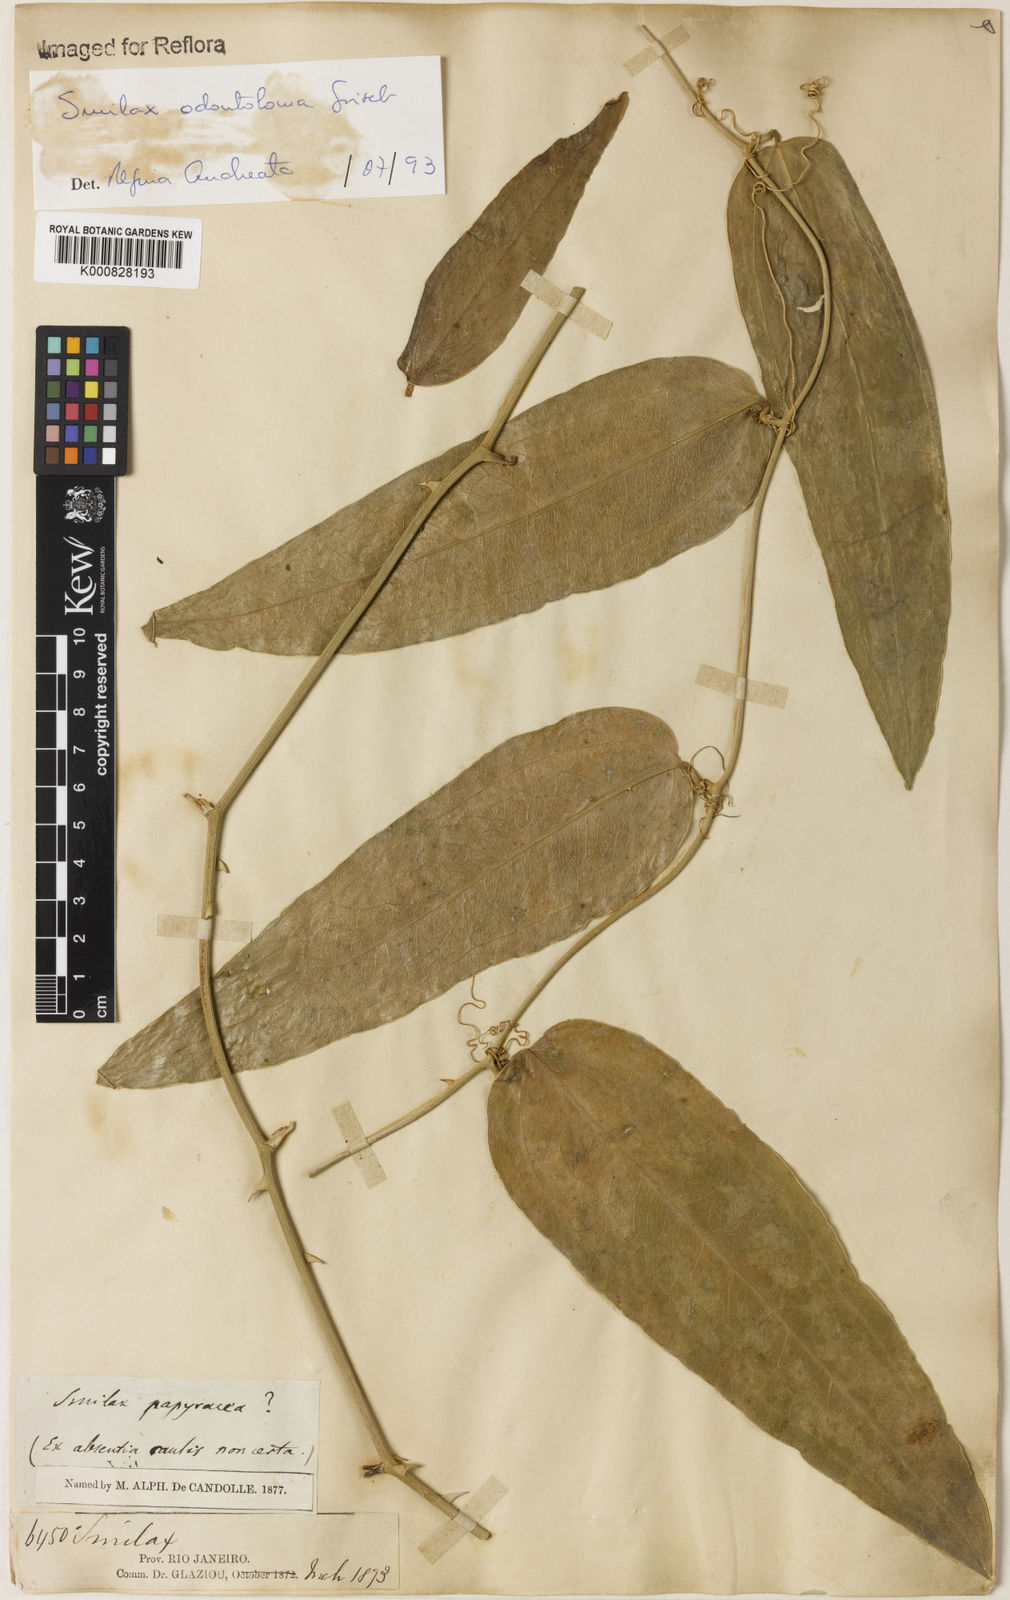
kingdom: Plantae
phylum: Tracheophyta
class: Liliopsida
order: Liliales
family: Smilacaceae
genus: Smilax
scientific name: Smilax
